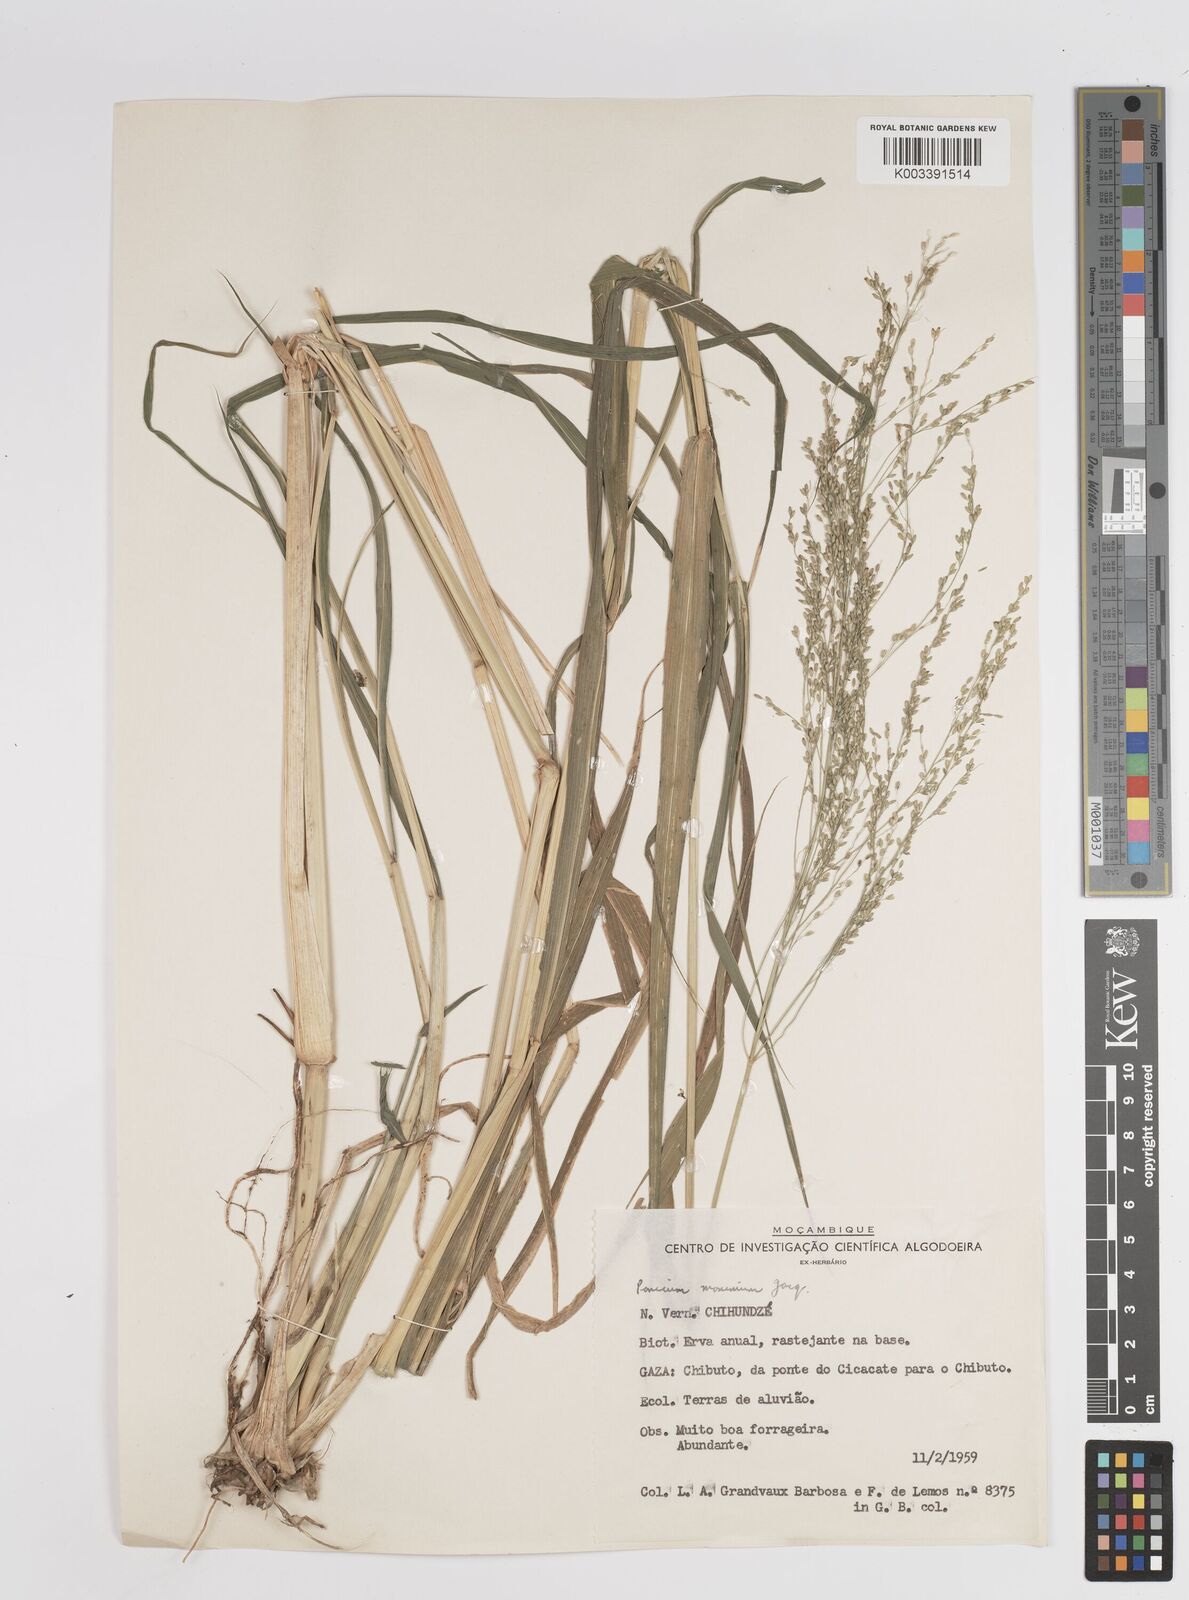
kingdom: Plantae
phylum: Tracheophyta
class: Liliopsida
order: Poales
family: Poaceae
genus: Megathyrsus
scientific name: Megathyrsus maximus
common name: Guineagrass
